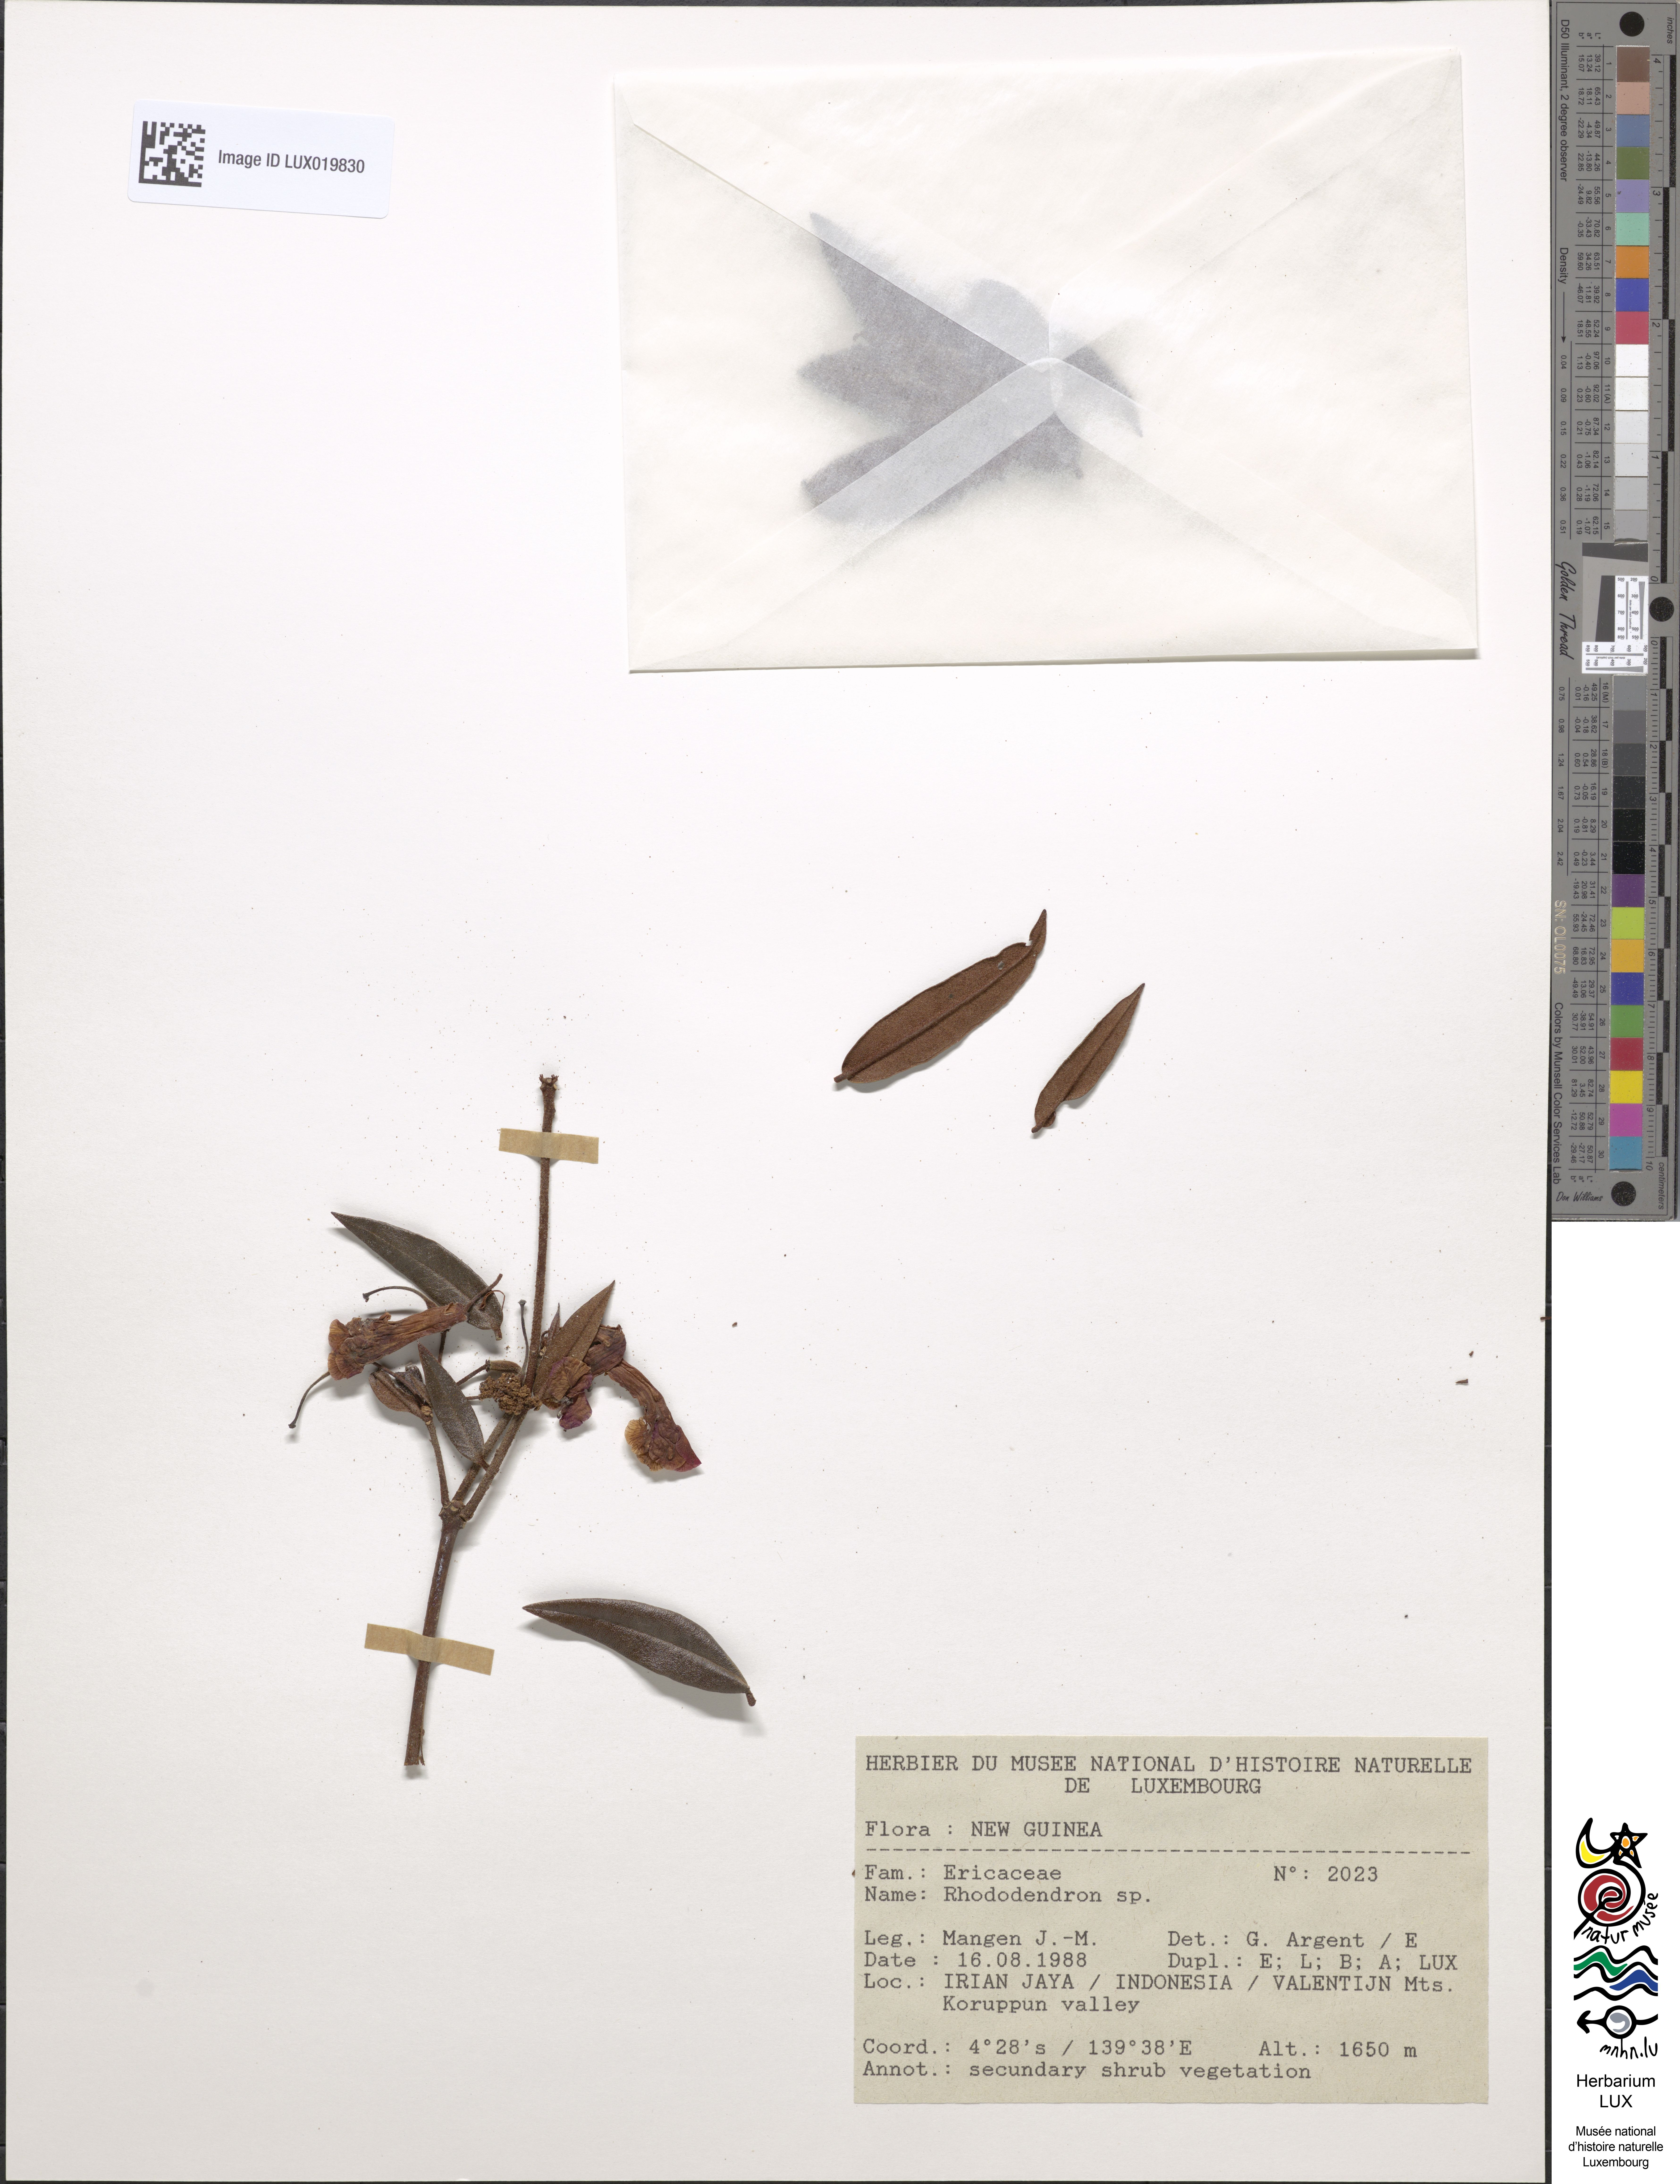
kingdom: Plantae
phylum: Tracheophyta
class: Magnoliopsida
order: Ericales
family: Ericaceae
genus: Rhododendron
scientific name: Rhododendron
